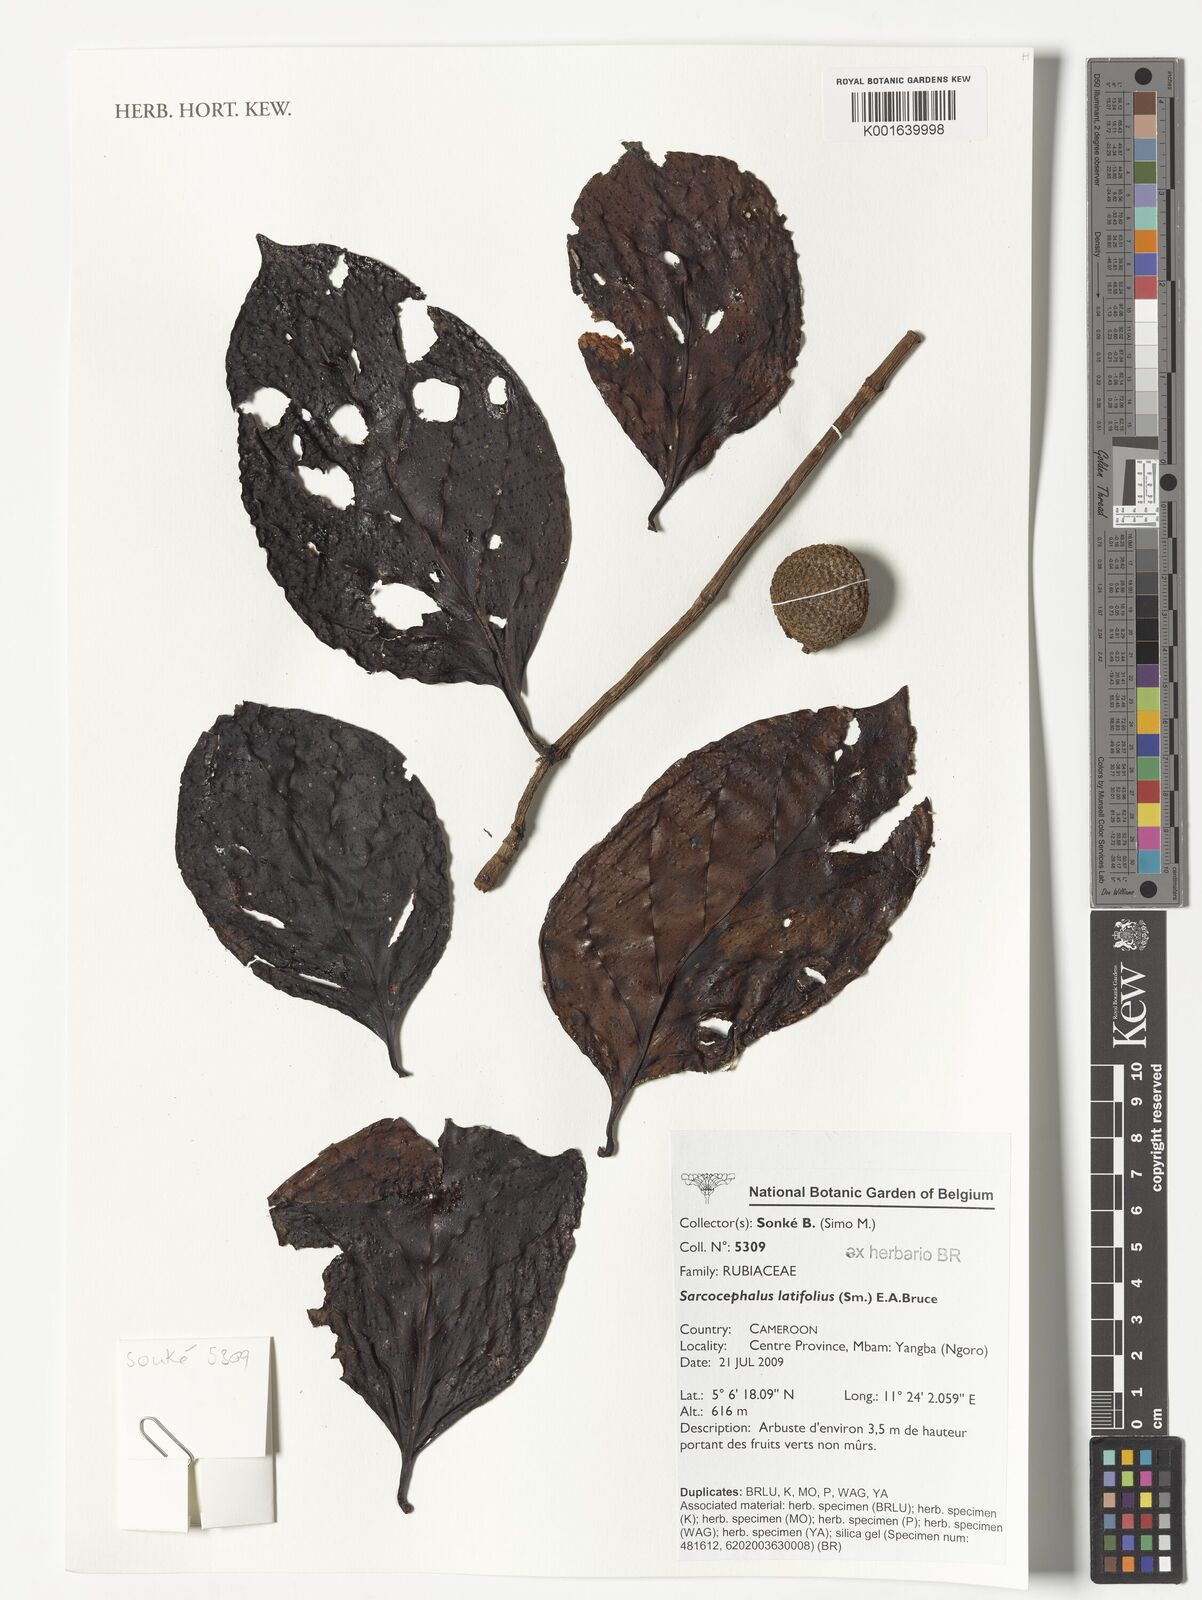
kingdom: Plantae
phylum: Tracheophyta
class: Magnoliopsida
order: Gentianales
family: Rubiaceae
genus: Nauclea
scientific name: Nauclea latifolia
